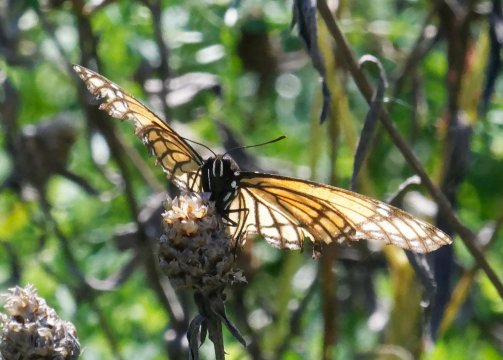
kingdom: Animalia
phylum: Arthropoda
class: Insecta
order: Lepidoptera
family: Nymphalidae
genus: Limenitis
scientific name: Limenitis archippus
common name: Viceroy
